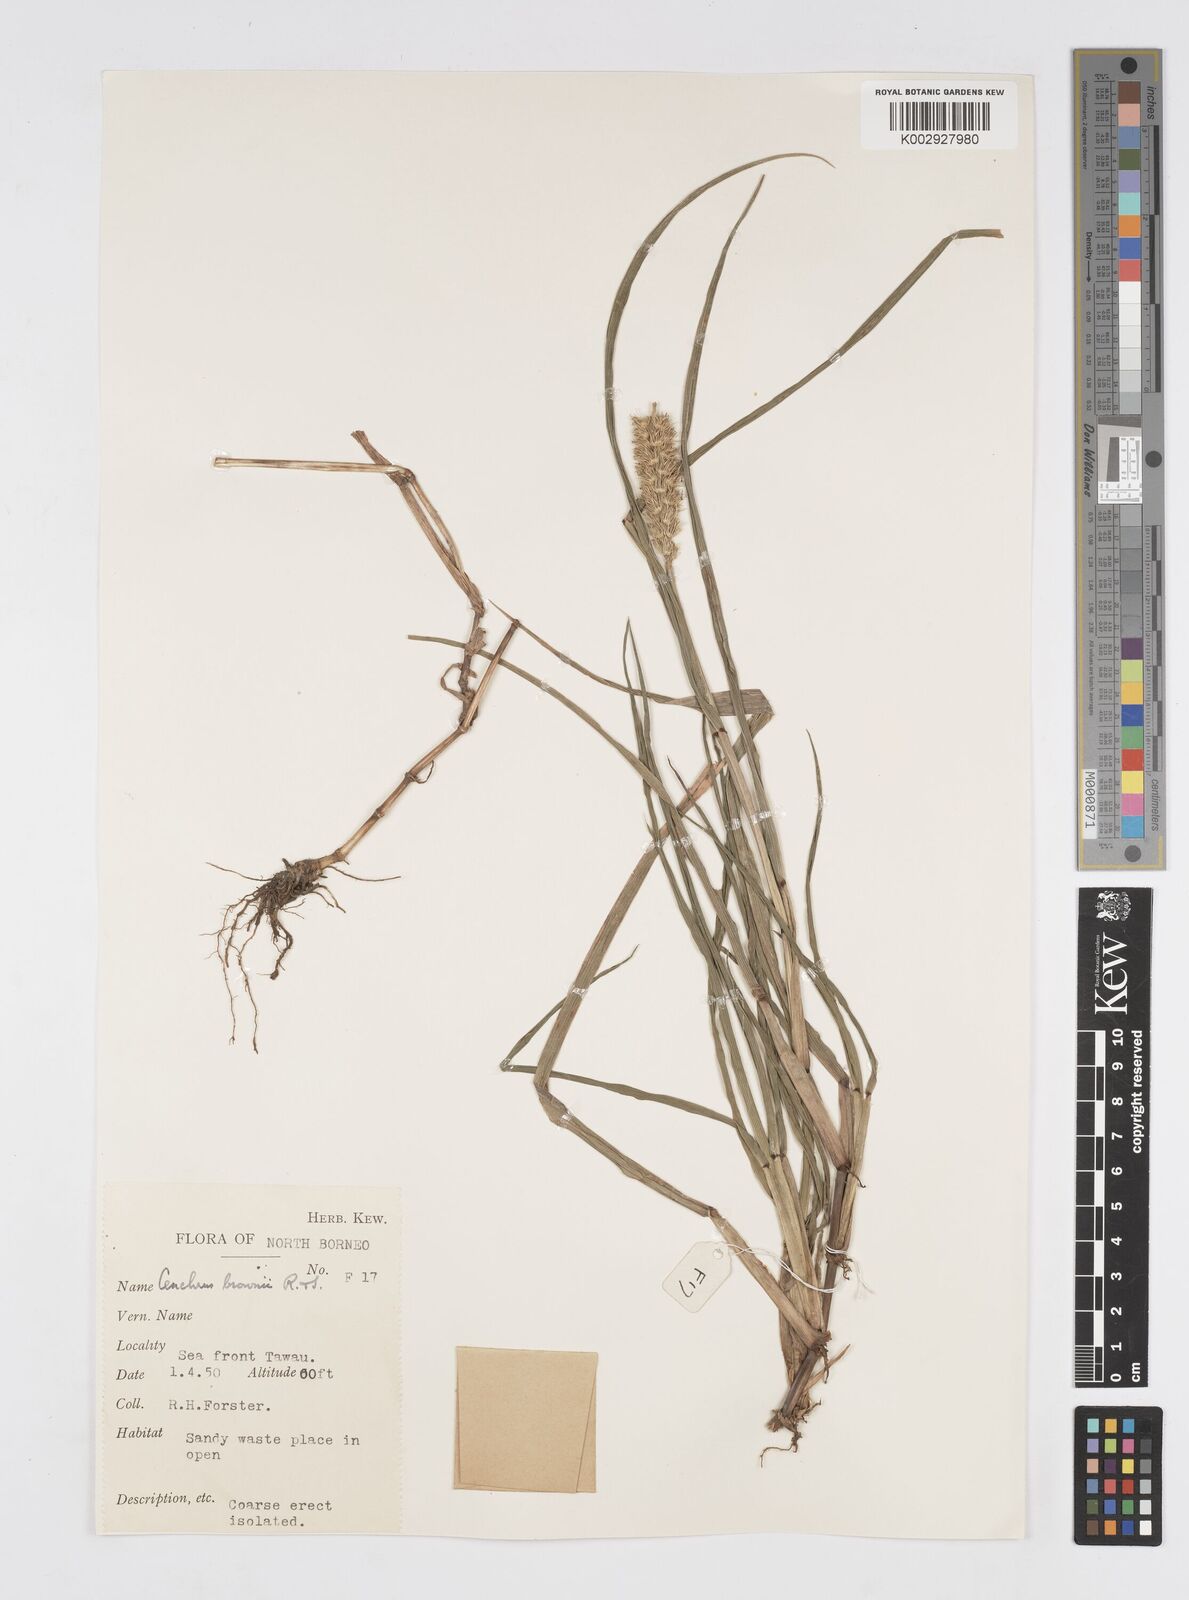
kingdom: Plantae
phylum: Tracheophyta
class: Liliopsida
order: Poales
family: Poaceae
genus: Cenchrus
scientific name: Cenchrus brownii
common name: Slim-bristle sandbur
